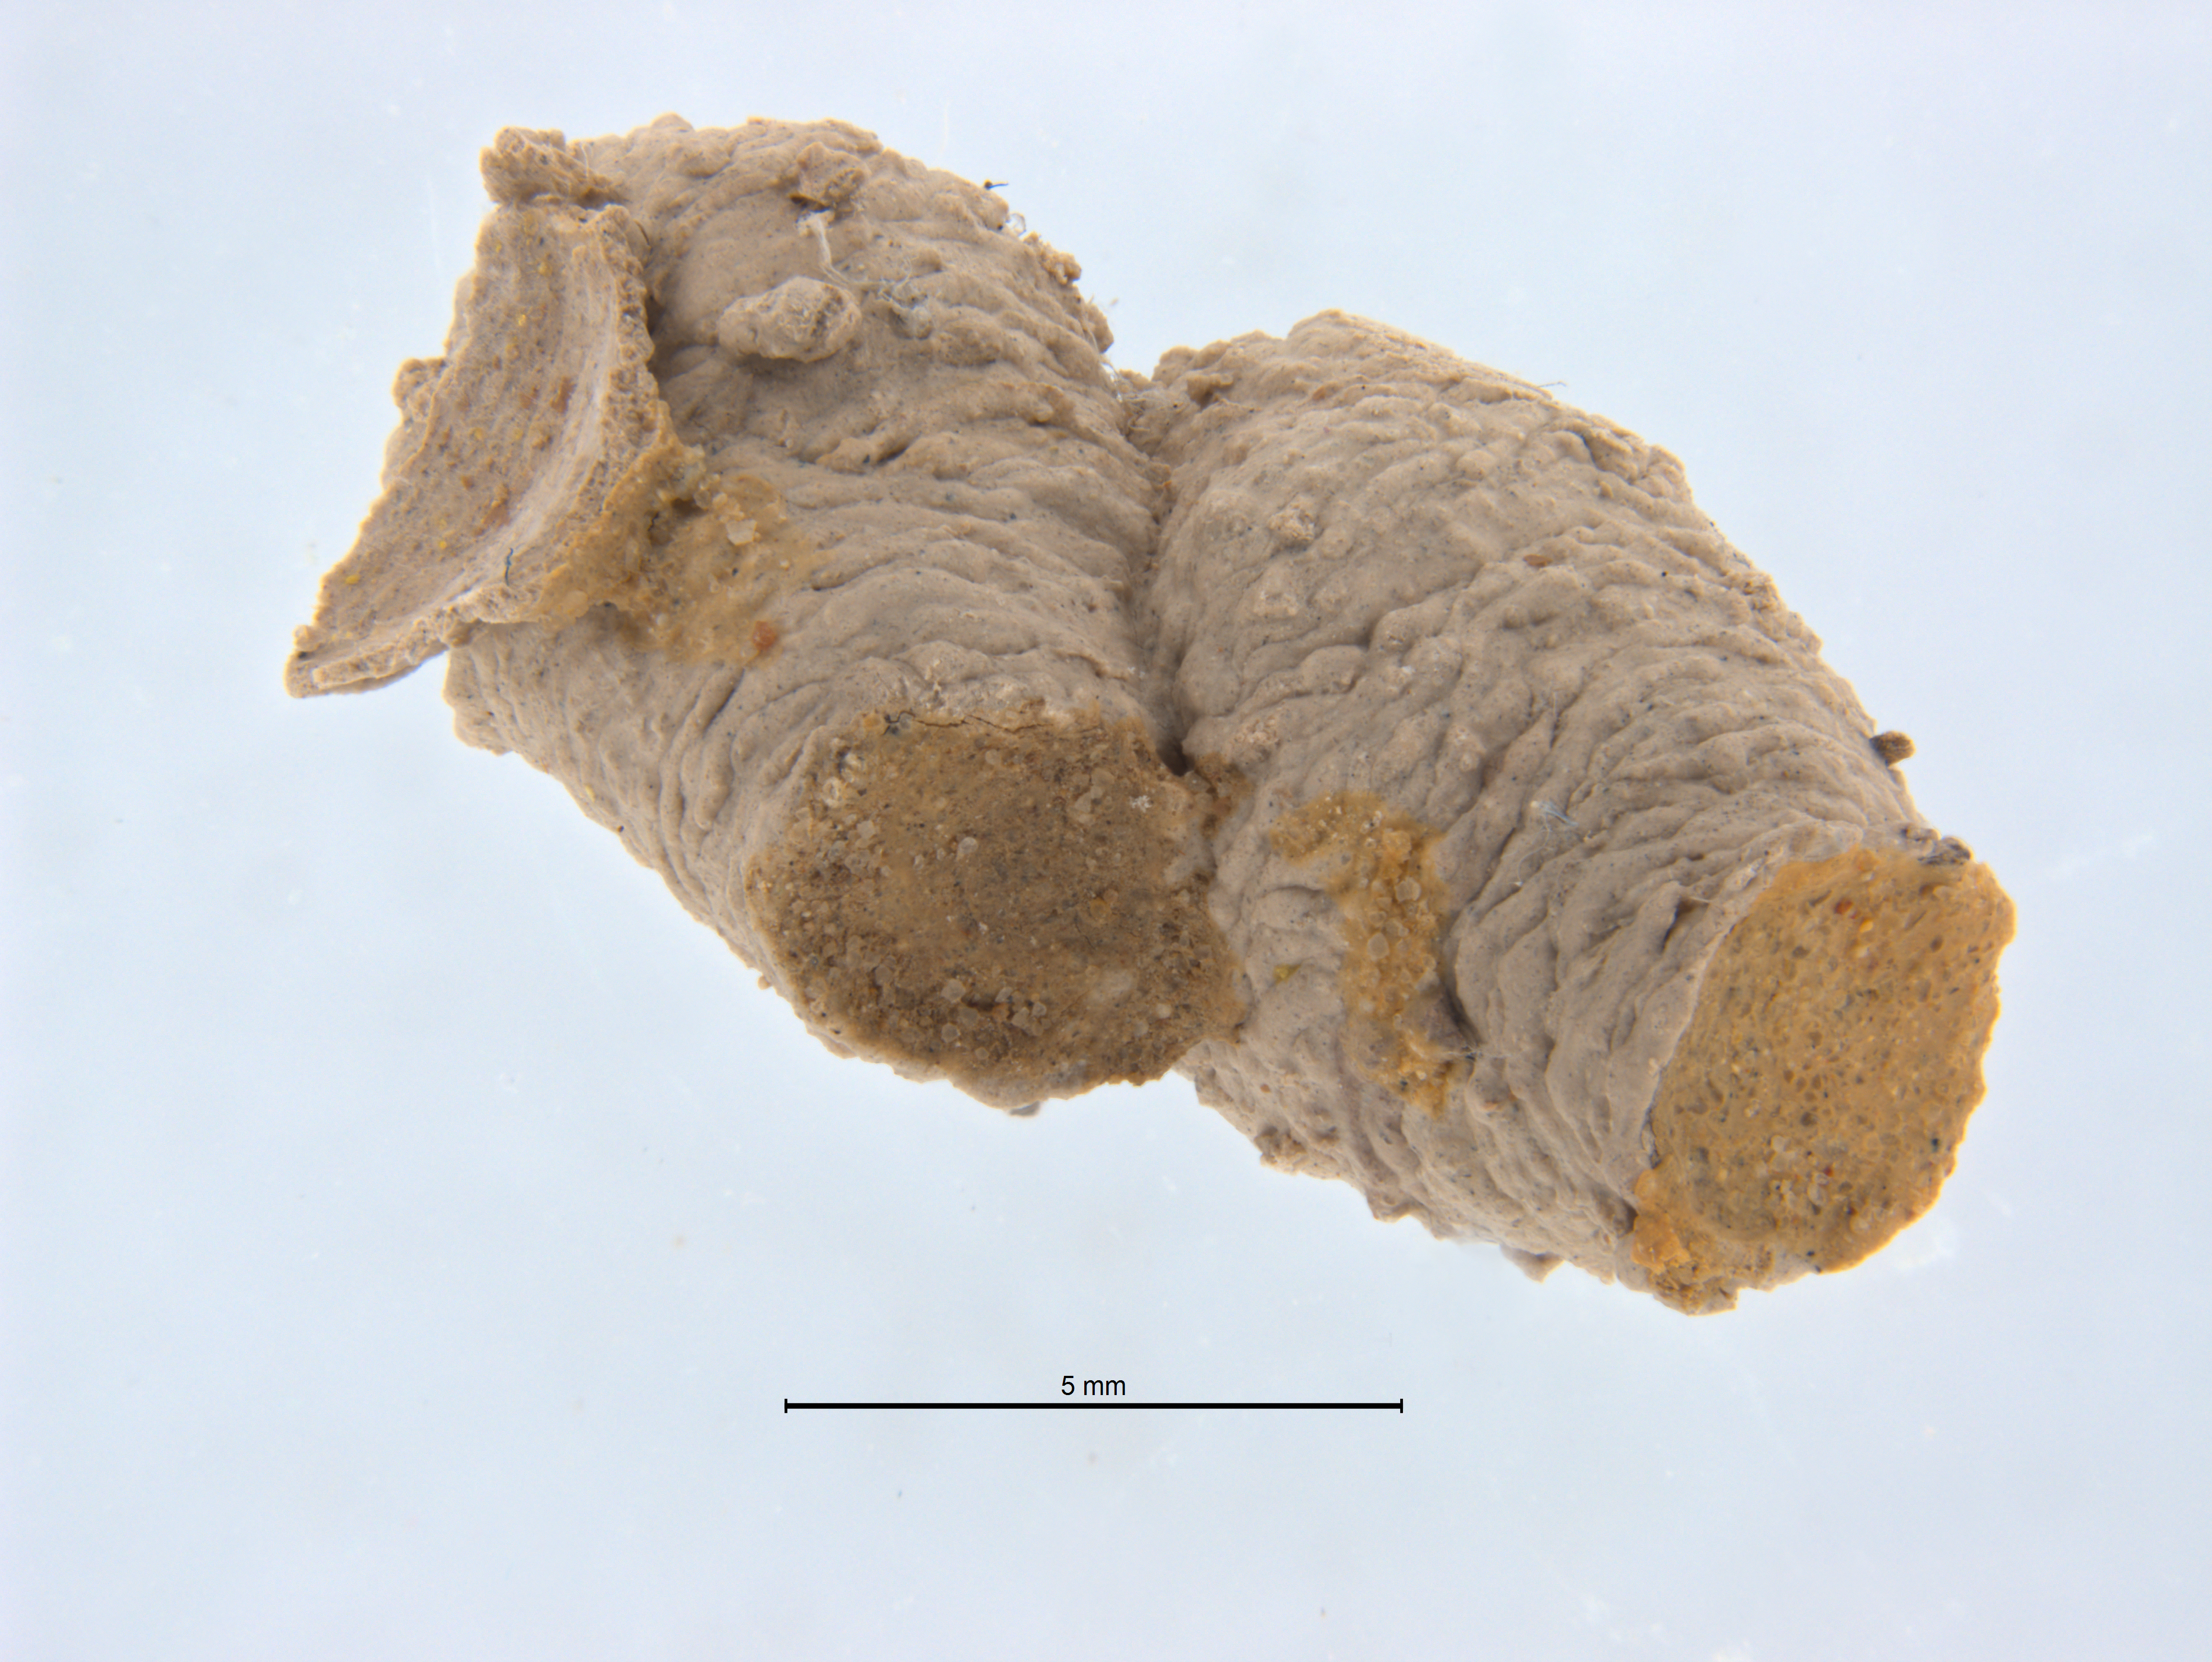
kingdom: Animalia
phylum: Arthropoda
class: Insecta
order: Hymenoptera
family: Crabronidae
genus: Pison
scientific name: Pison peletieri
